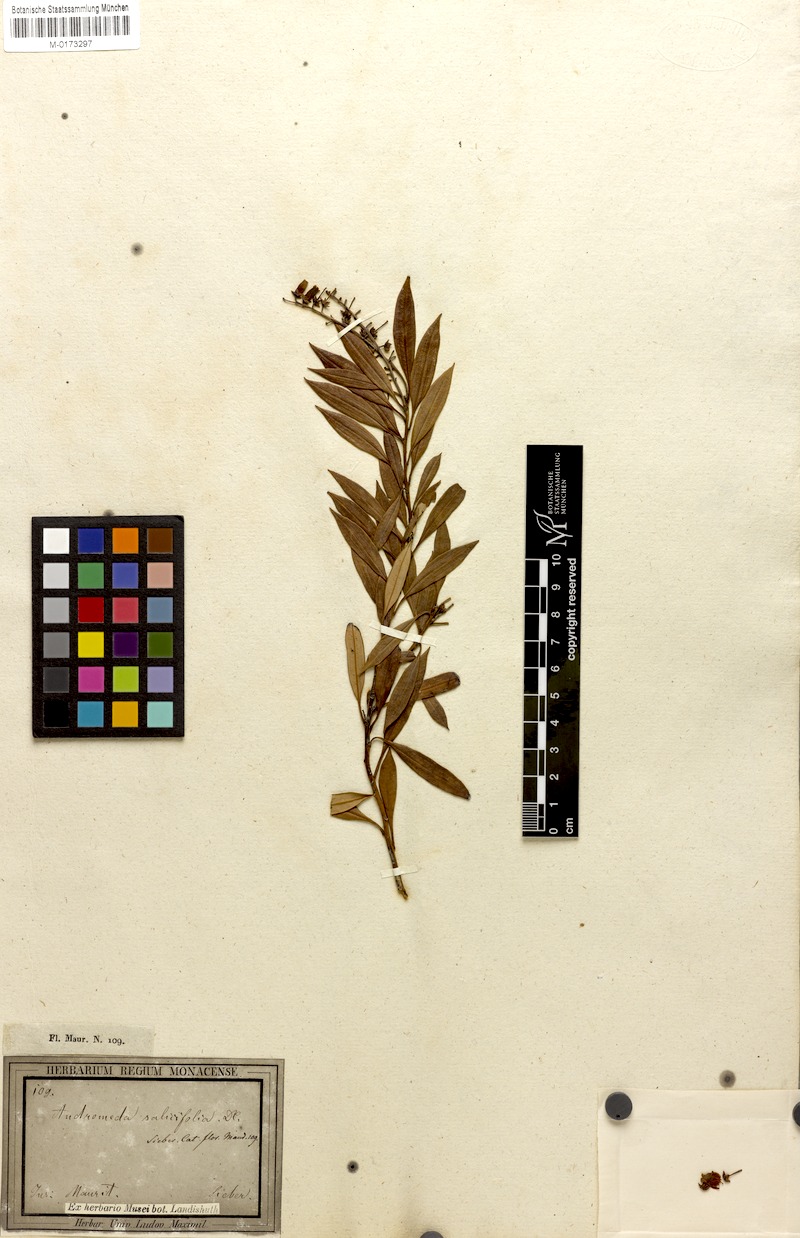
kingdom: Plantae
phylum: Tracheophyta
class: Magnoliopsida
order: Ericales
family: Ericaceae
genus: Agarista
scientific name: Agarista salicifolia
